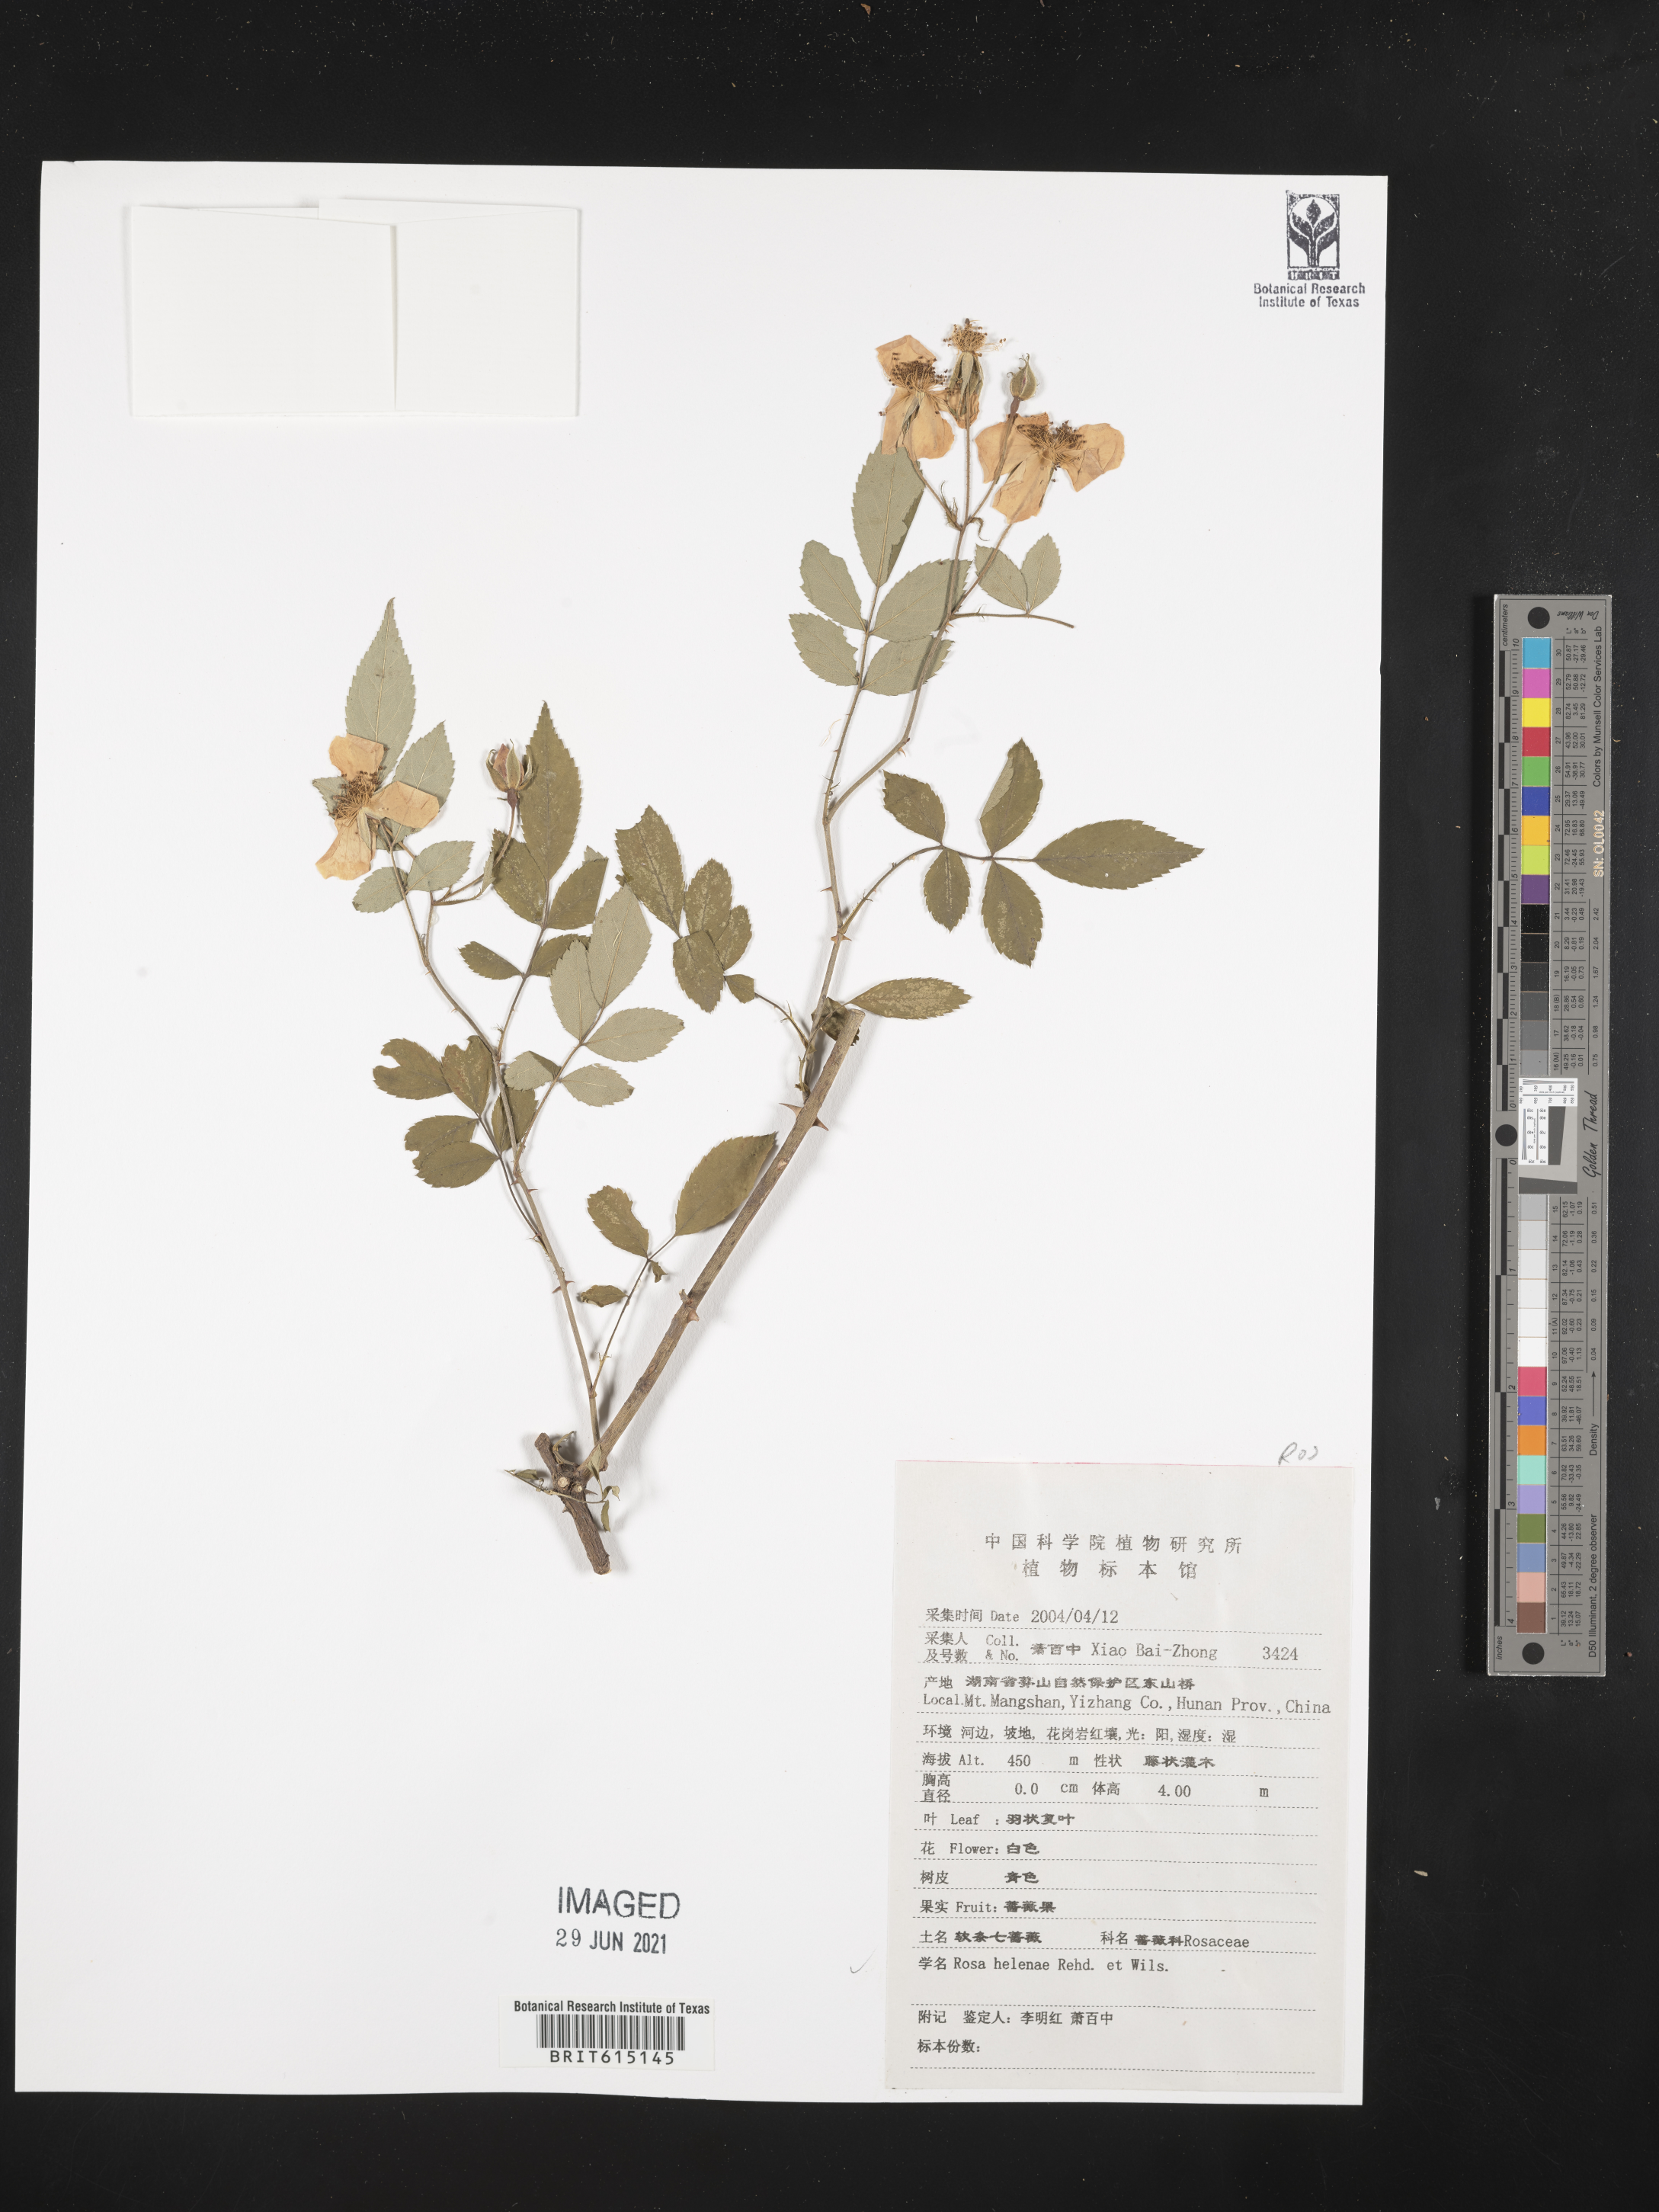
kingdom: Plantae
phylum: Tracheophyta
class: Magnoliopsida
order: Rosales
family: Rosaceae
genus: Rosa
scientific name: Rosa helenae
